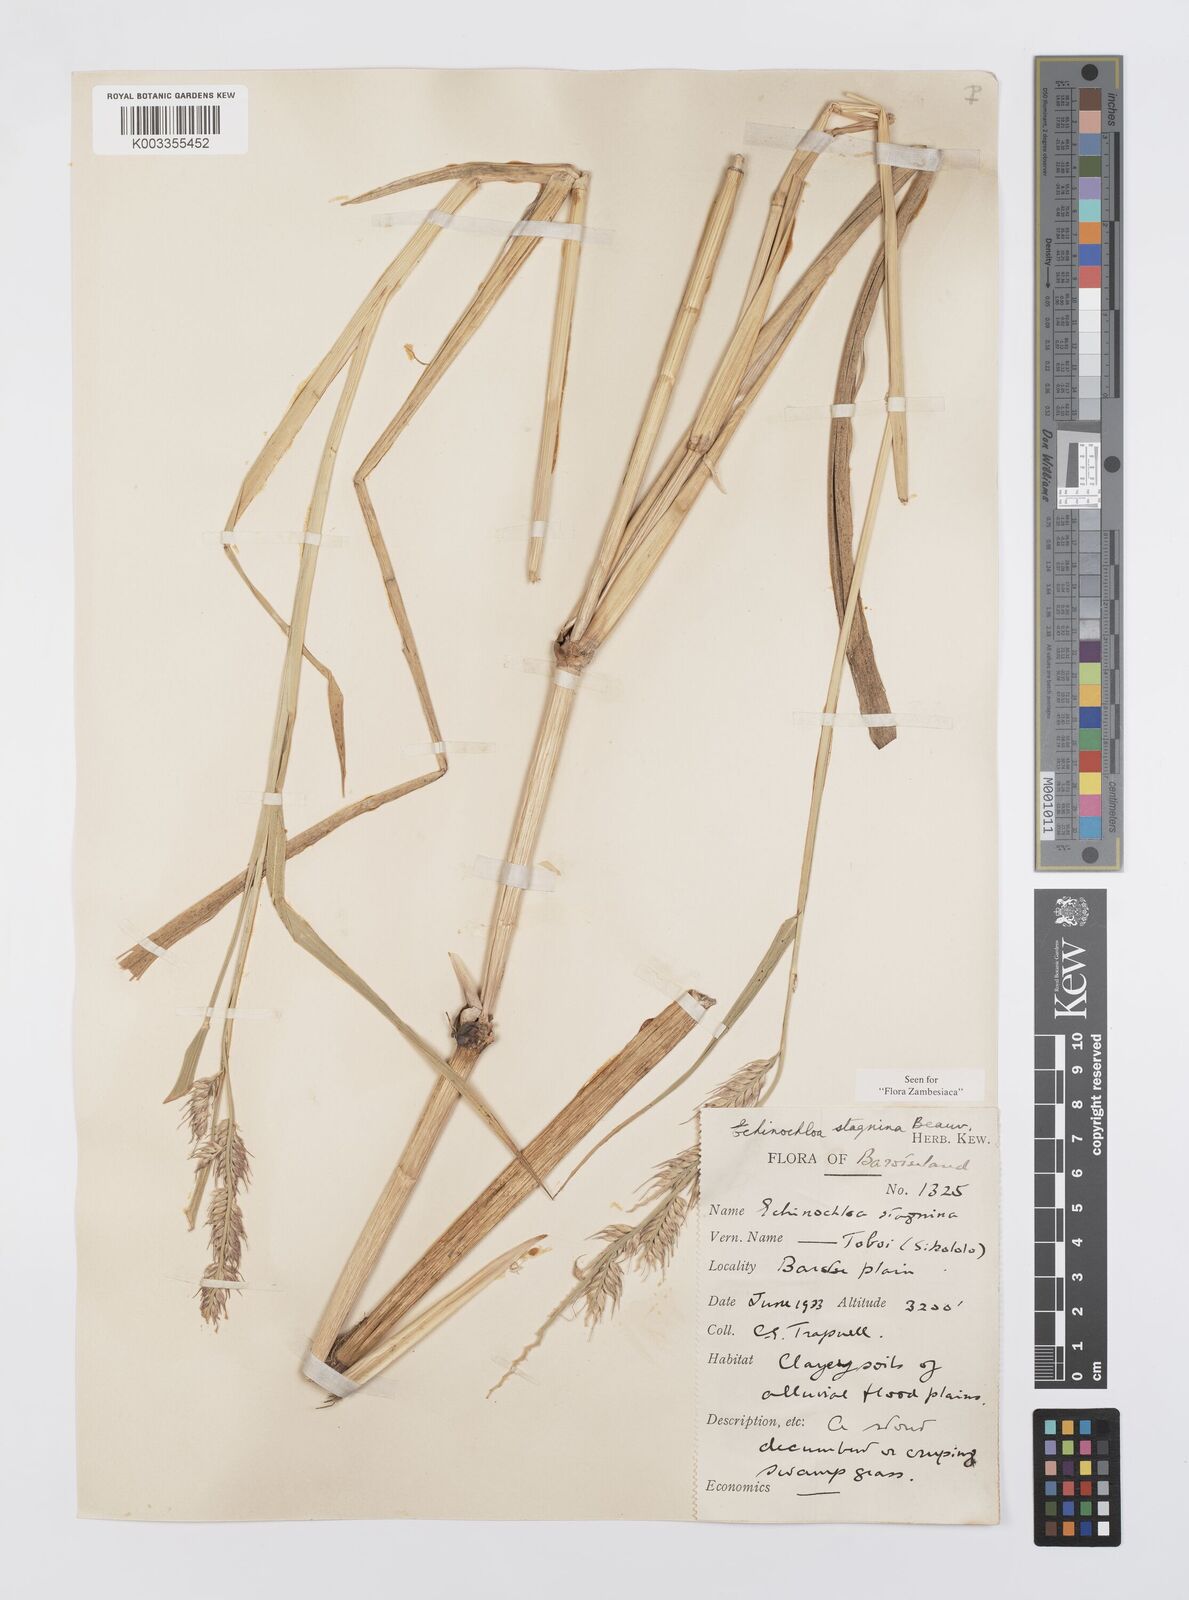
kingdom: Plantae
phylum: Tracheophyta
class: Liliopsida
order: Poales
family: Poaceae
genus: Echinochloa
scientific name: Echinochloa stagnina
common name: Burgu grass
